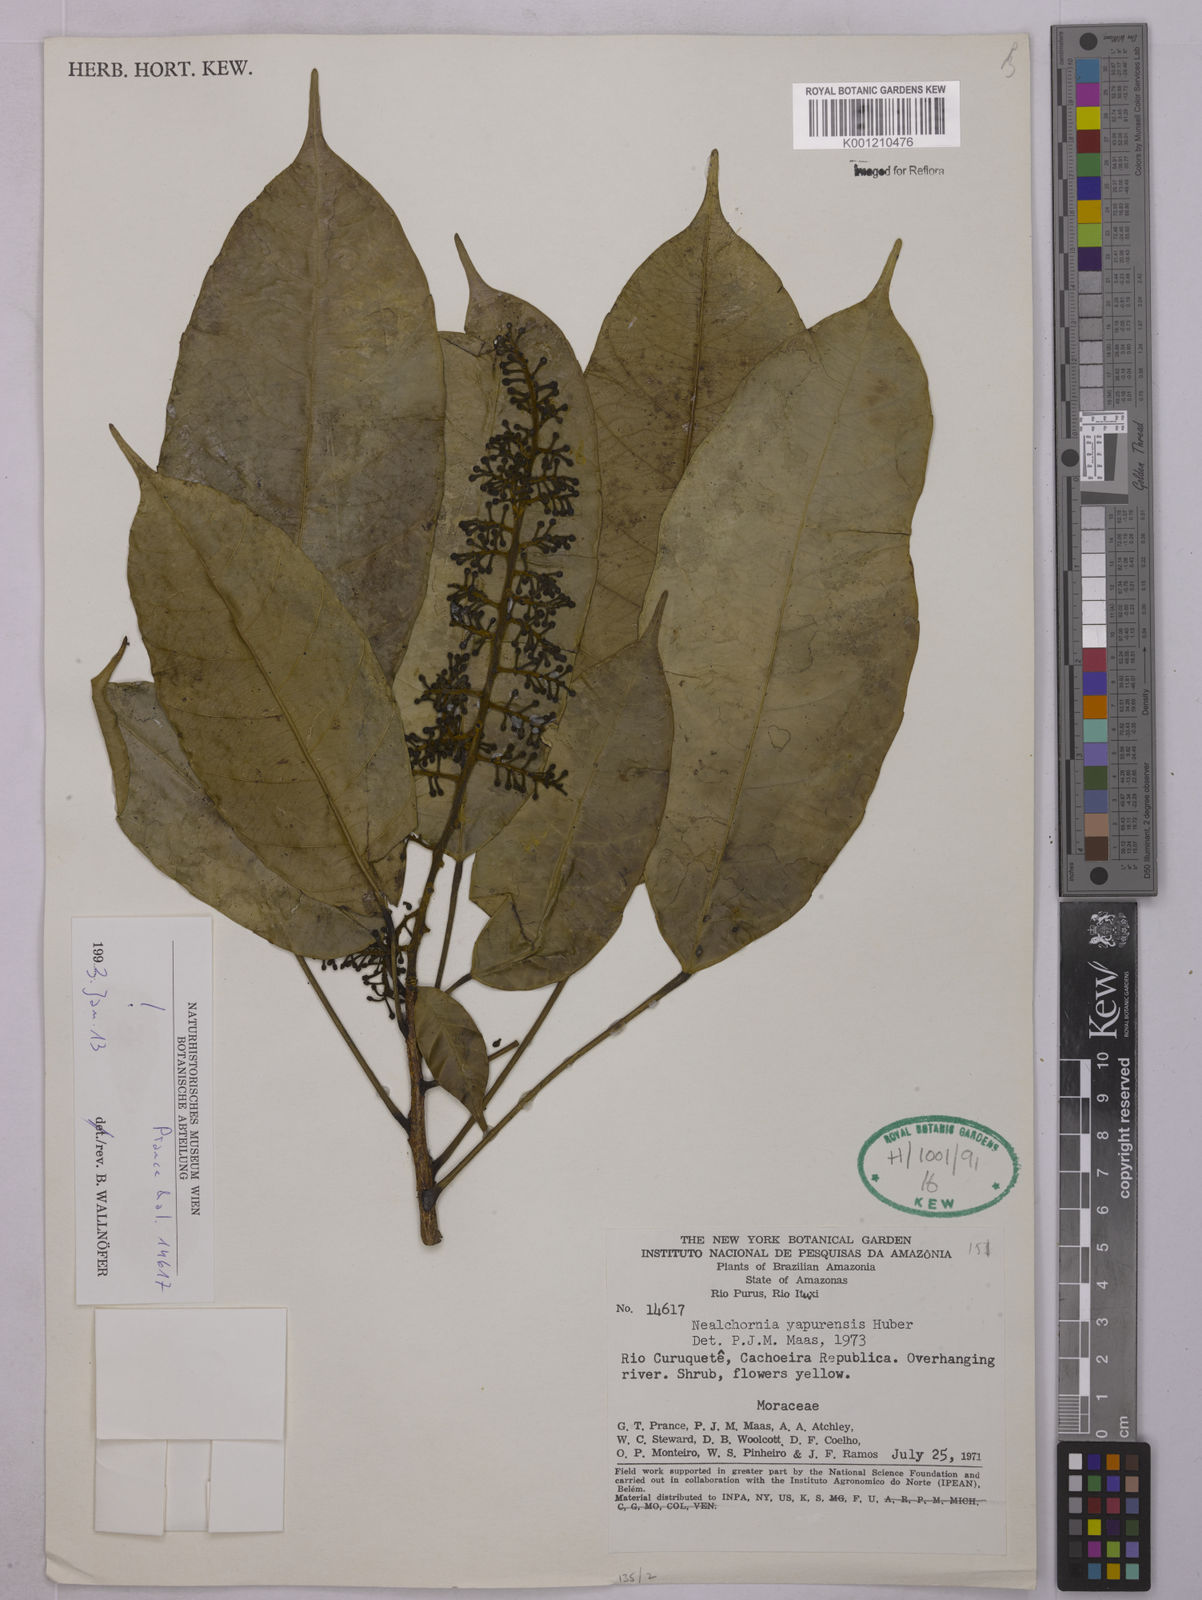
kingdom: Plantae
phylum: Tracheophyta
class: Magnoliopsida
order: Malpighiales
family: Euphorbiaceae
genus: Nealchornea
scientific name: Nealchornea yapurensis
